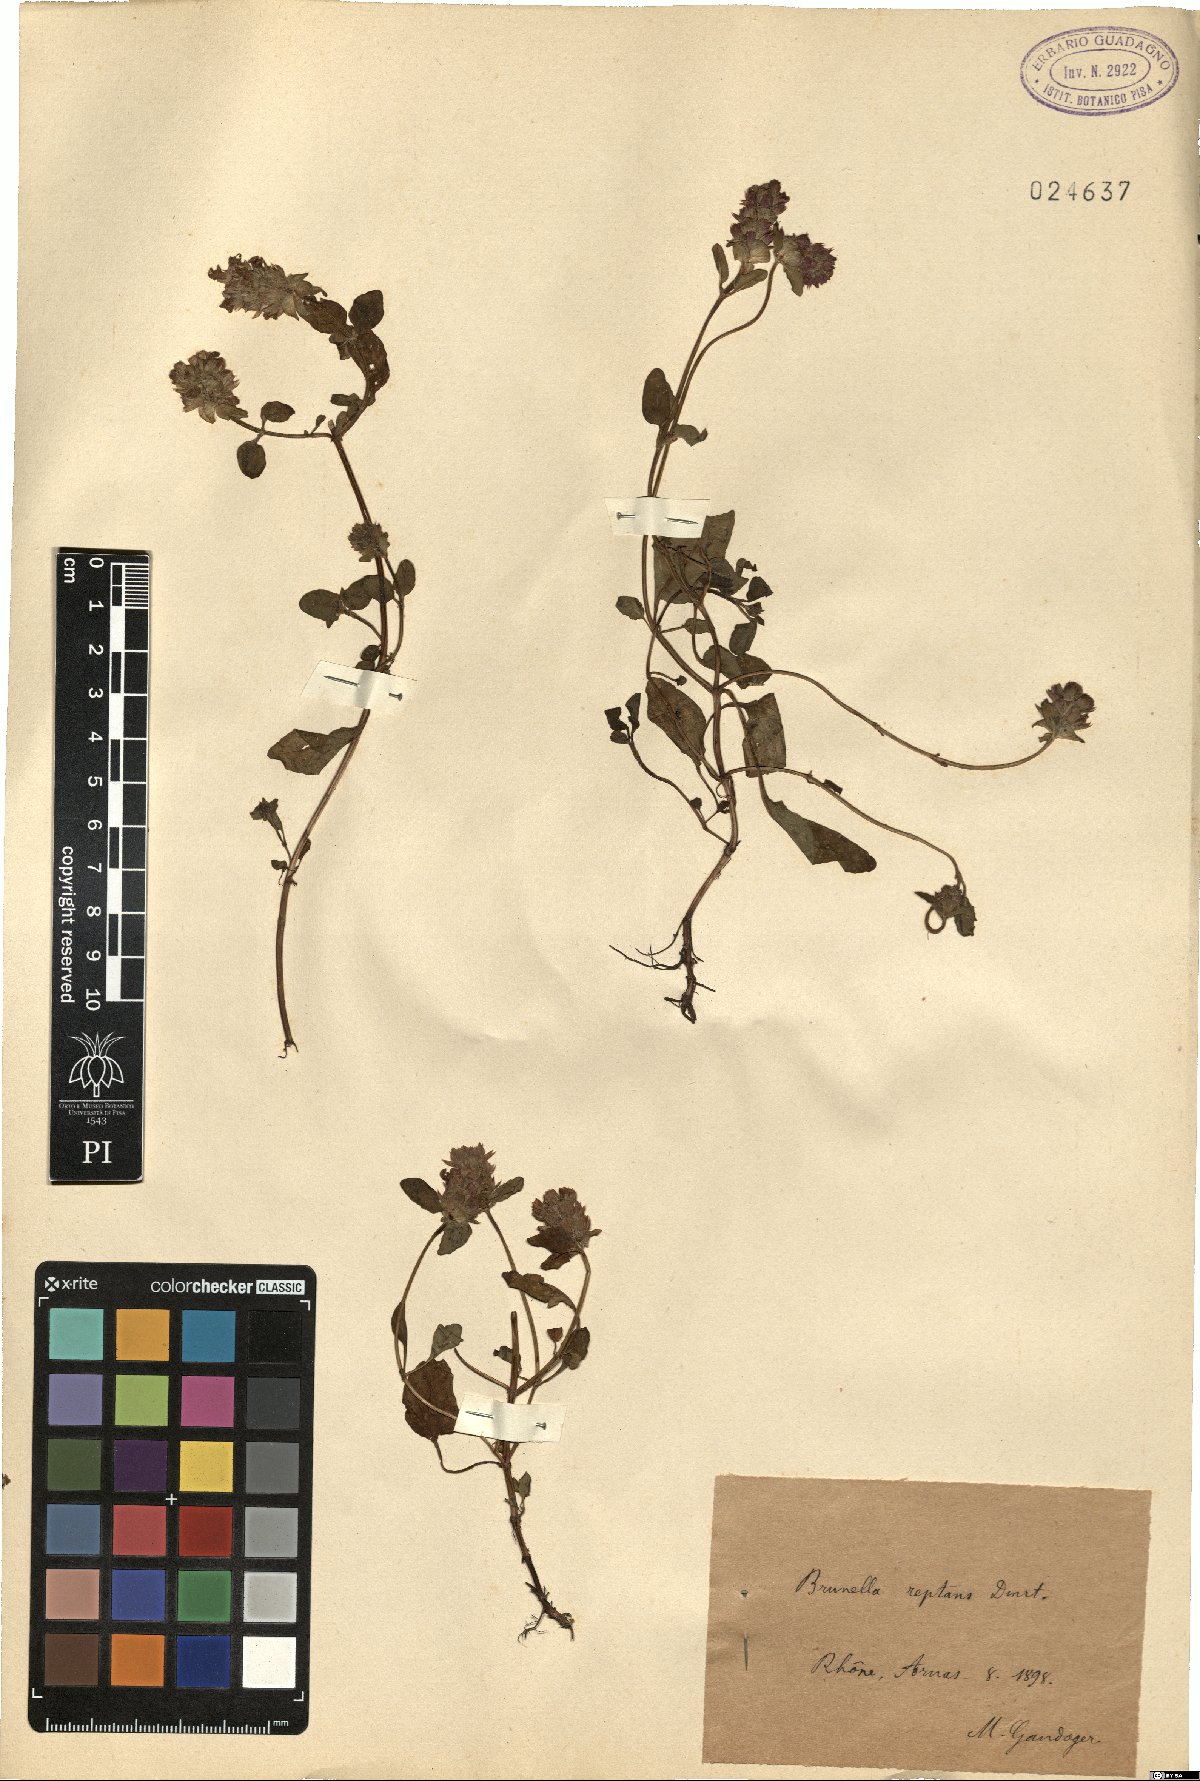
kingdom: Plantae
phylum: Tracheophyta
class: Magnoliopsida
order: Lamiales
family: Lamiaceae
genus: Prunella
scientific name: Prunella vulgaris
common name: Heal-all
